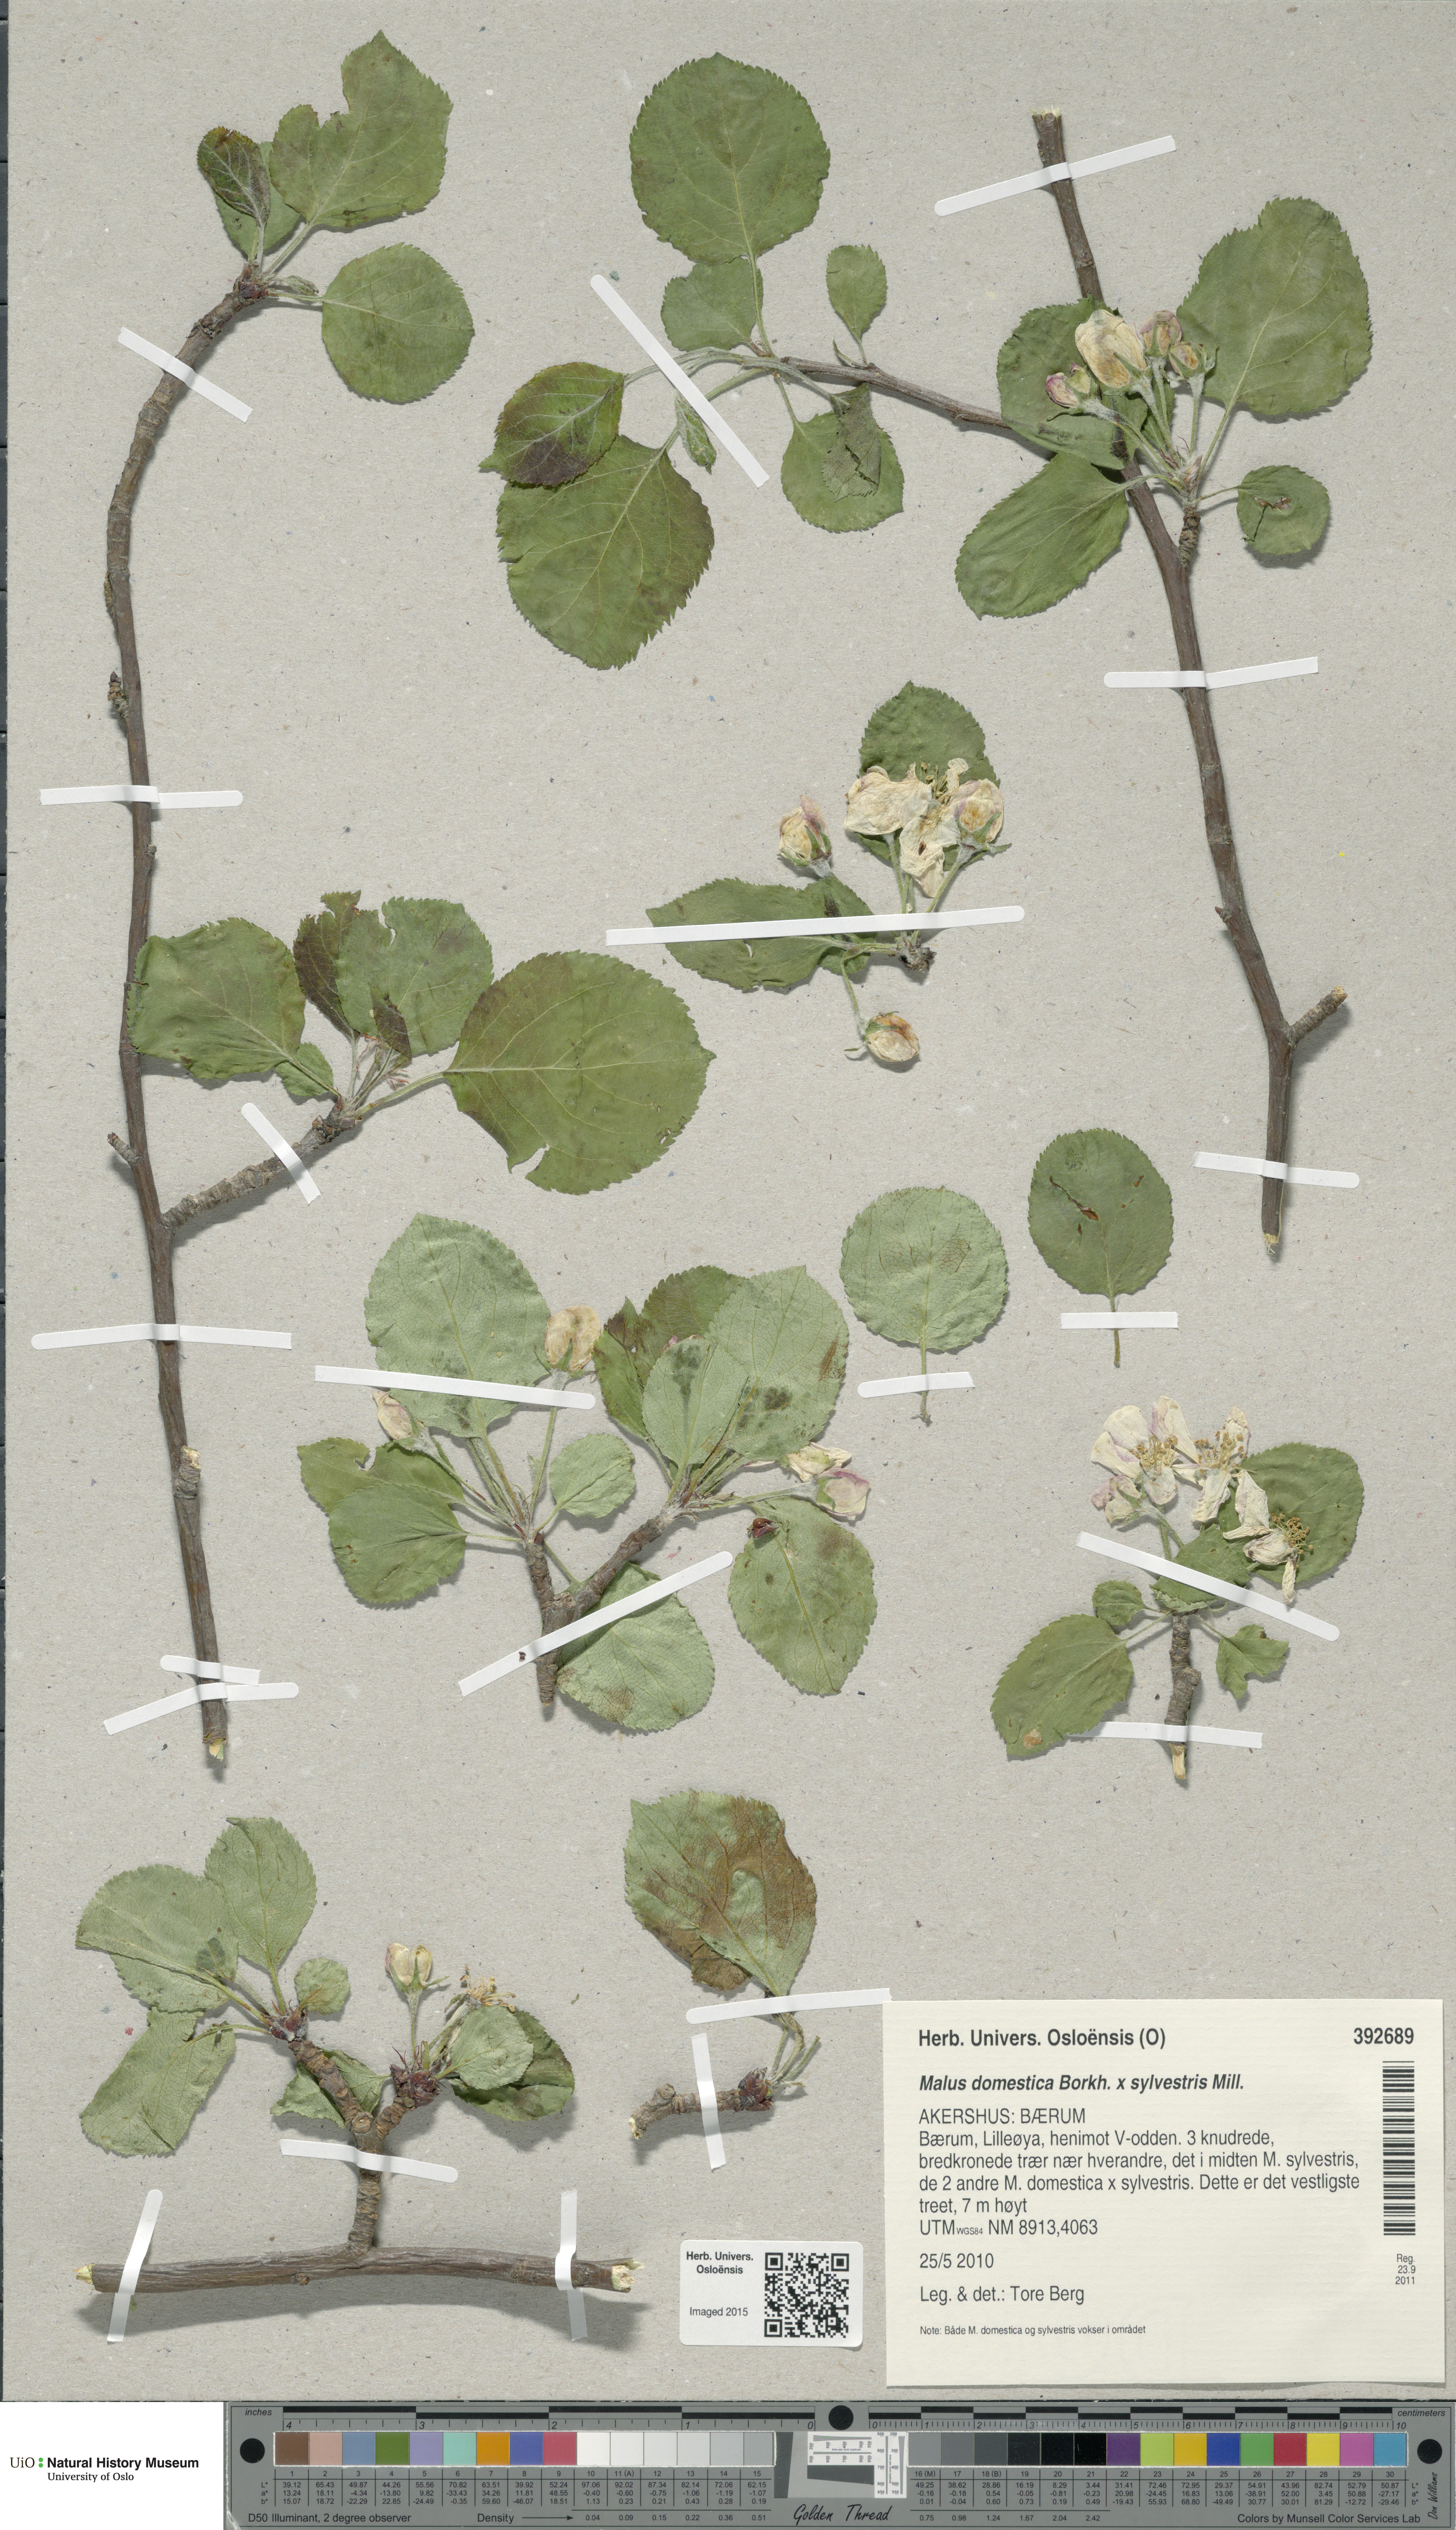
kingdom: Plantae
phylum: Tracheophyta
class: Magnoliopsida
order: Rosales
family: Rosaceae
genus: Malus
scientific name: Malus
